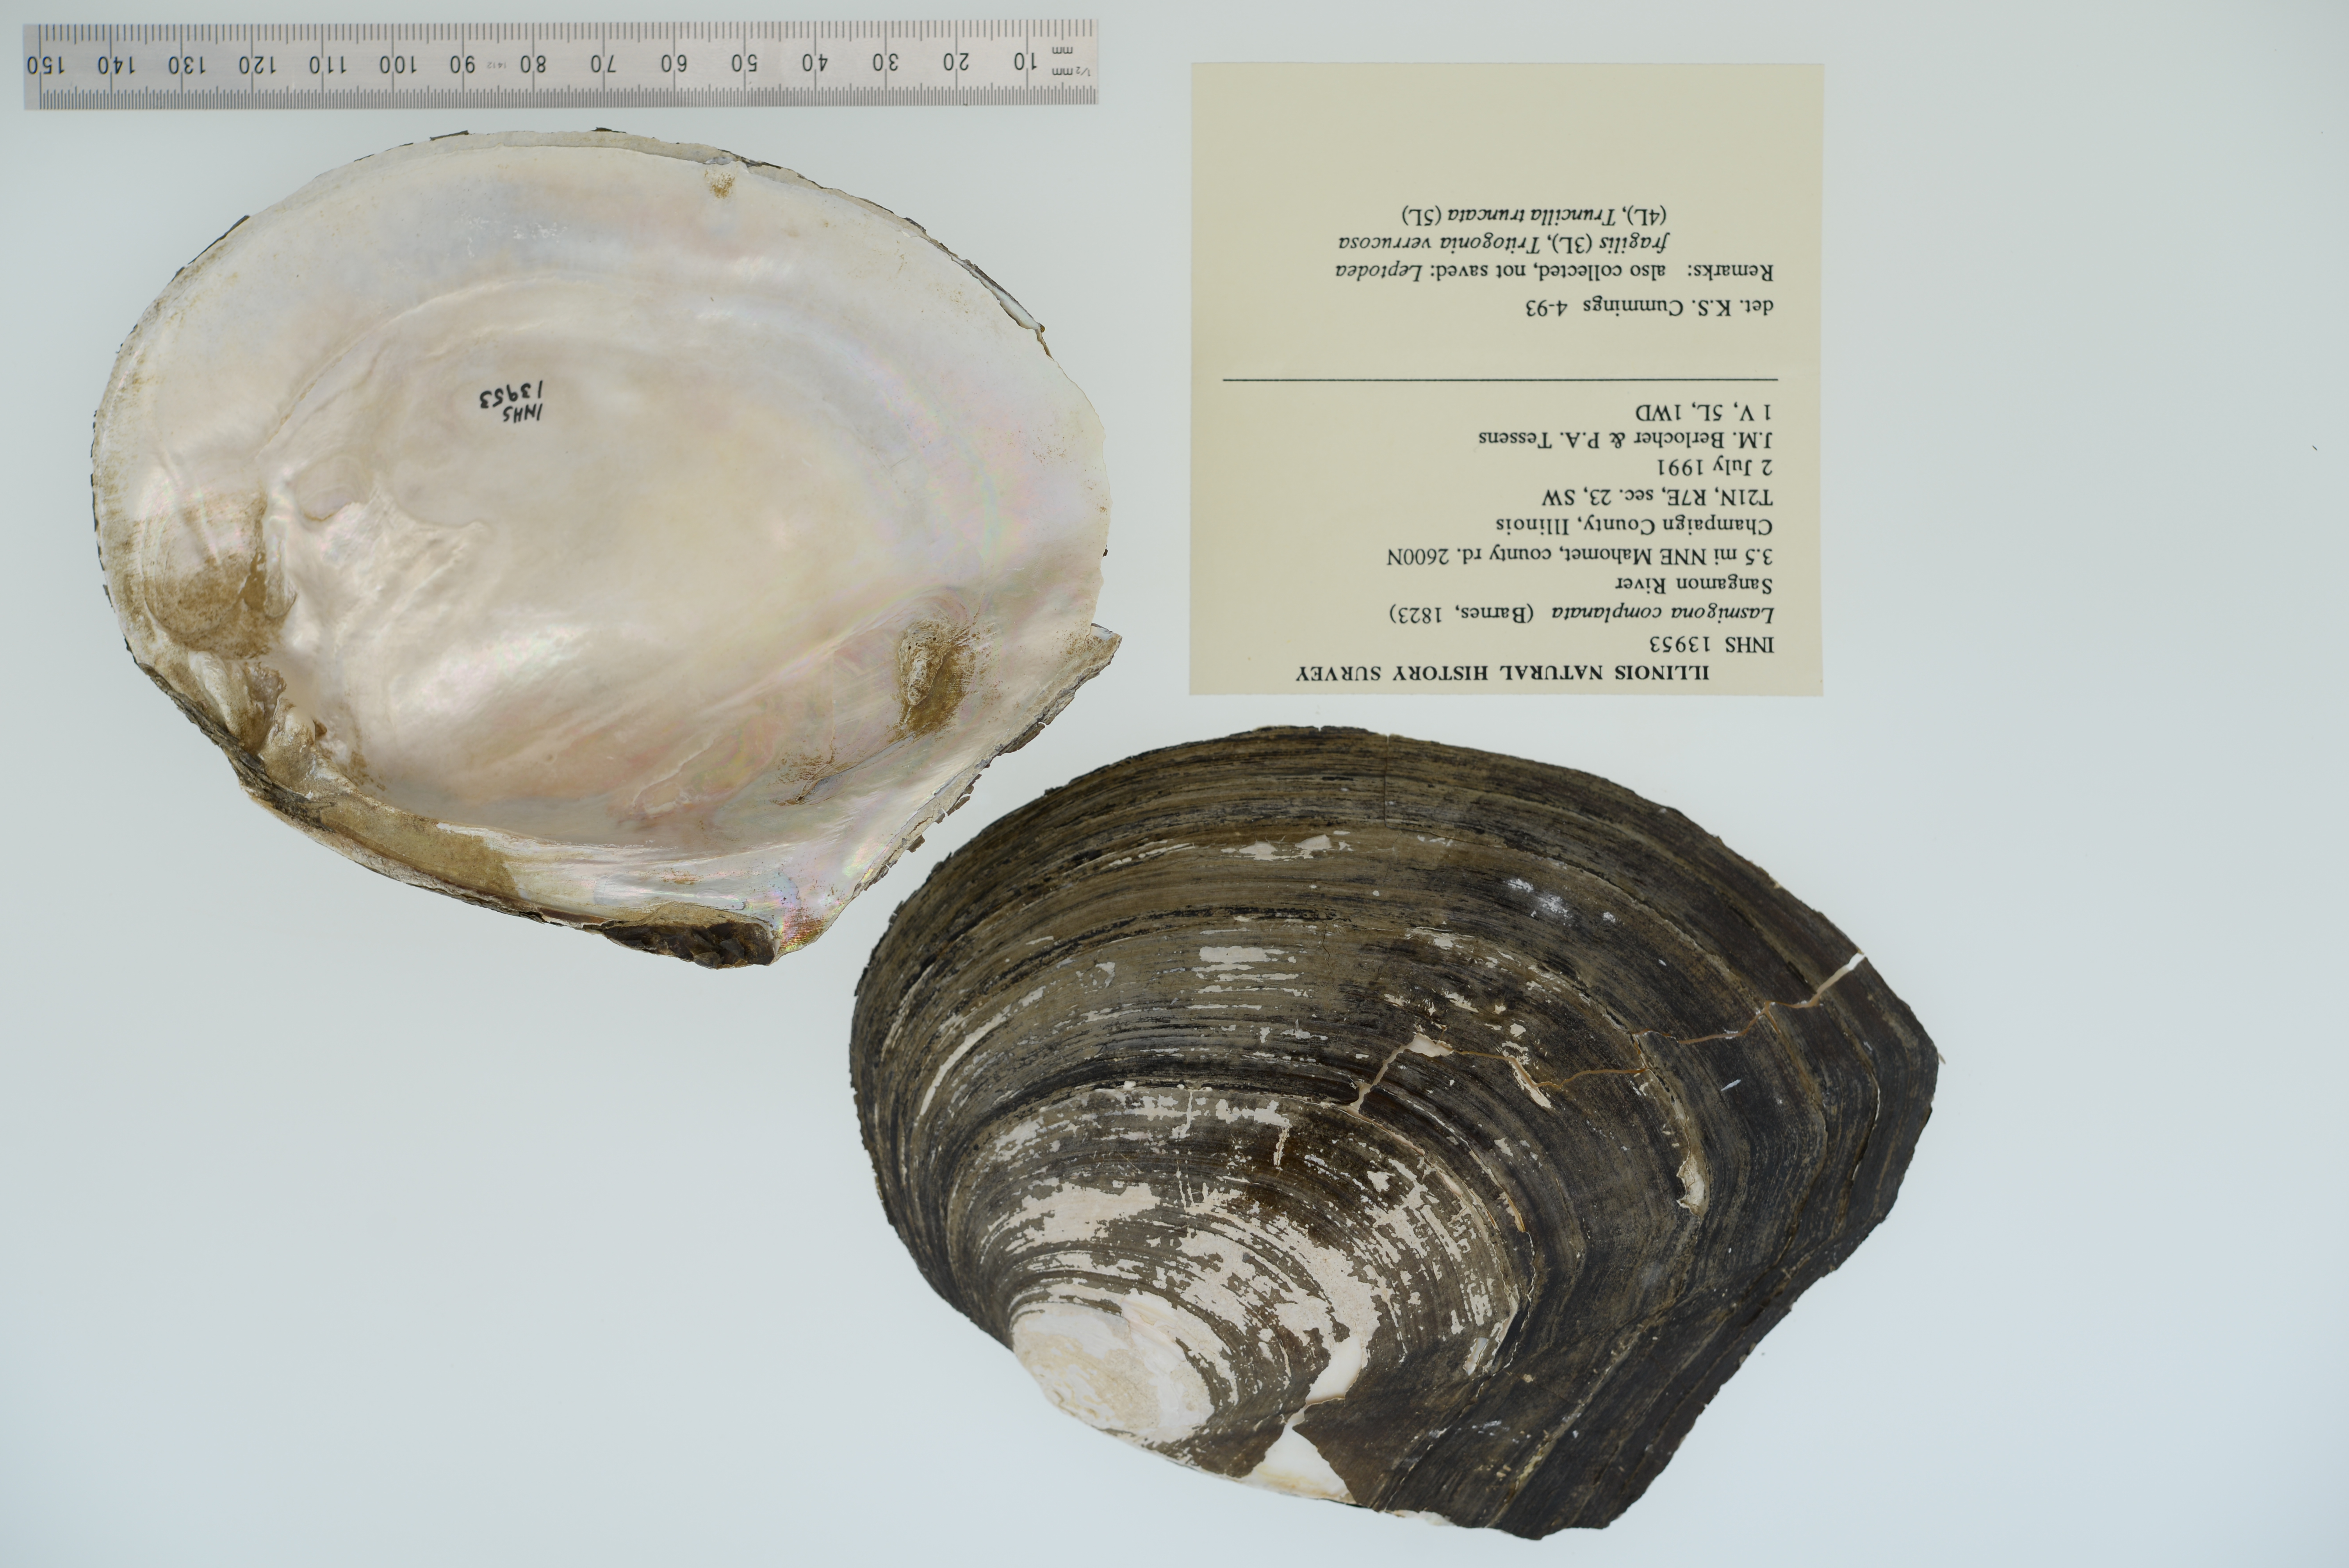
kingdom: Animalia
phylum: Mollusca
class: Bivalvia
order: Unionida
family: Unionidae
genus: Lasmigona
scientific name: Lasmigona complanata
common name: White heelsplitter
